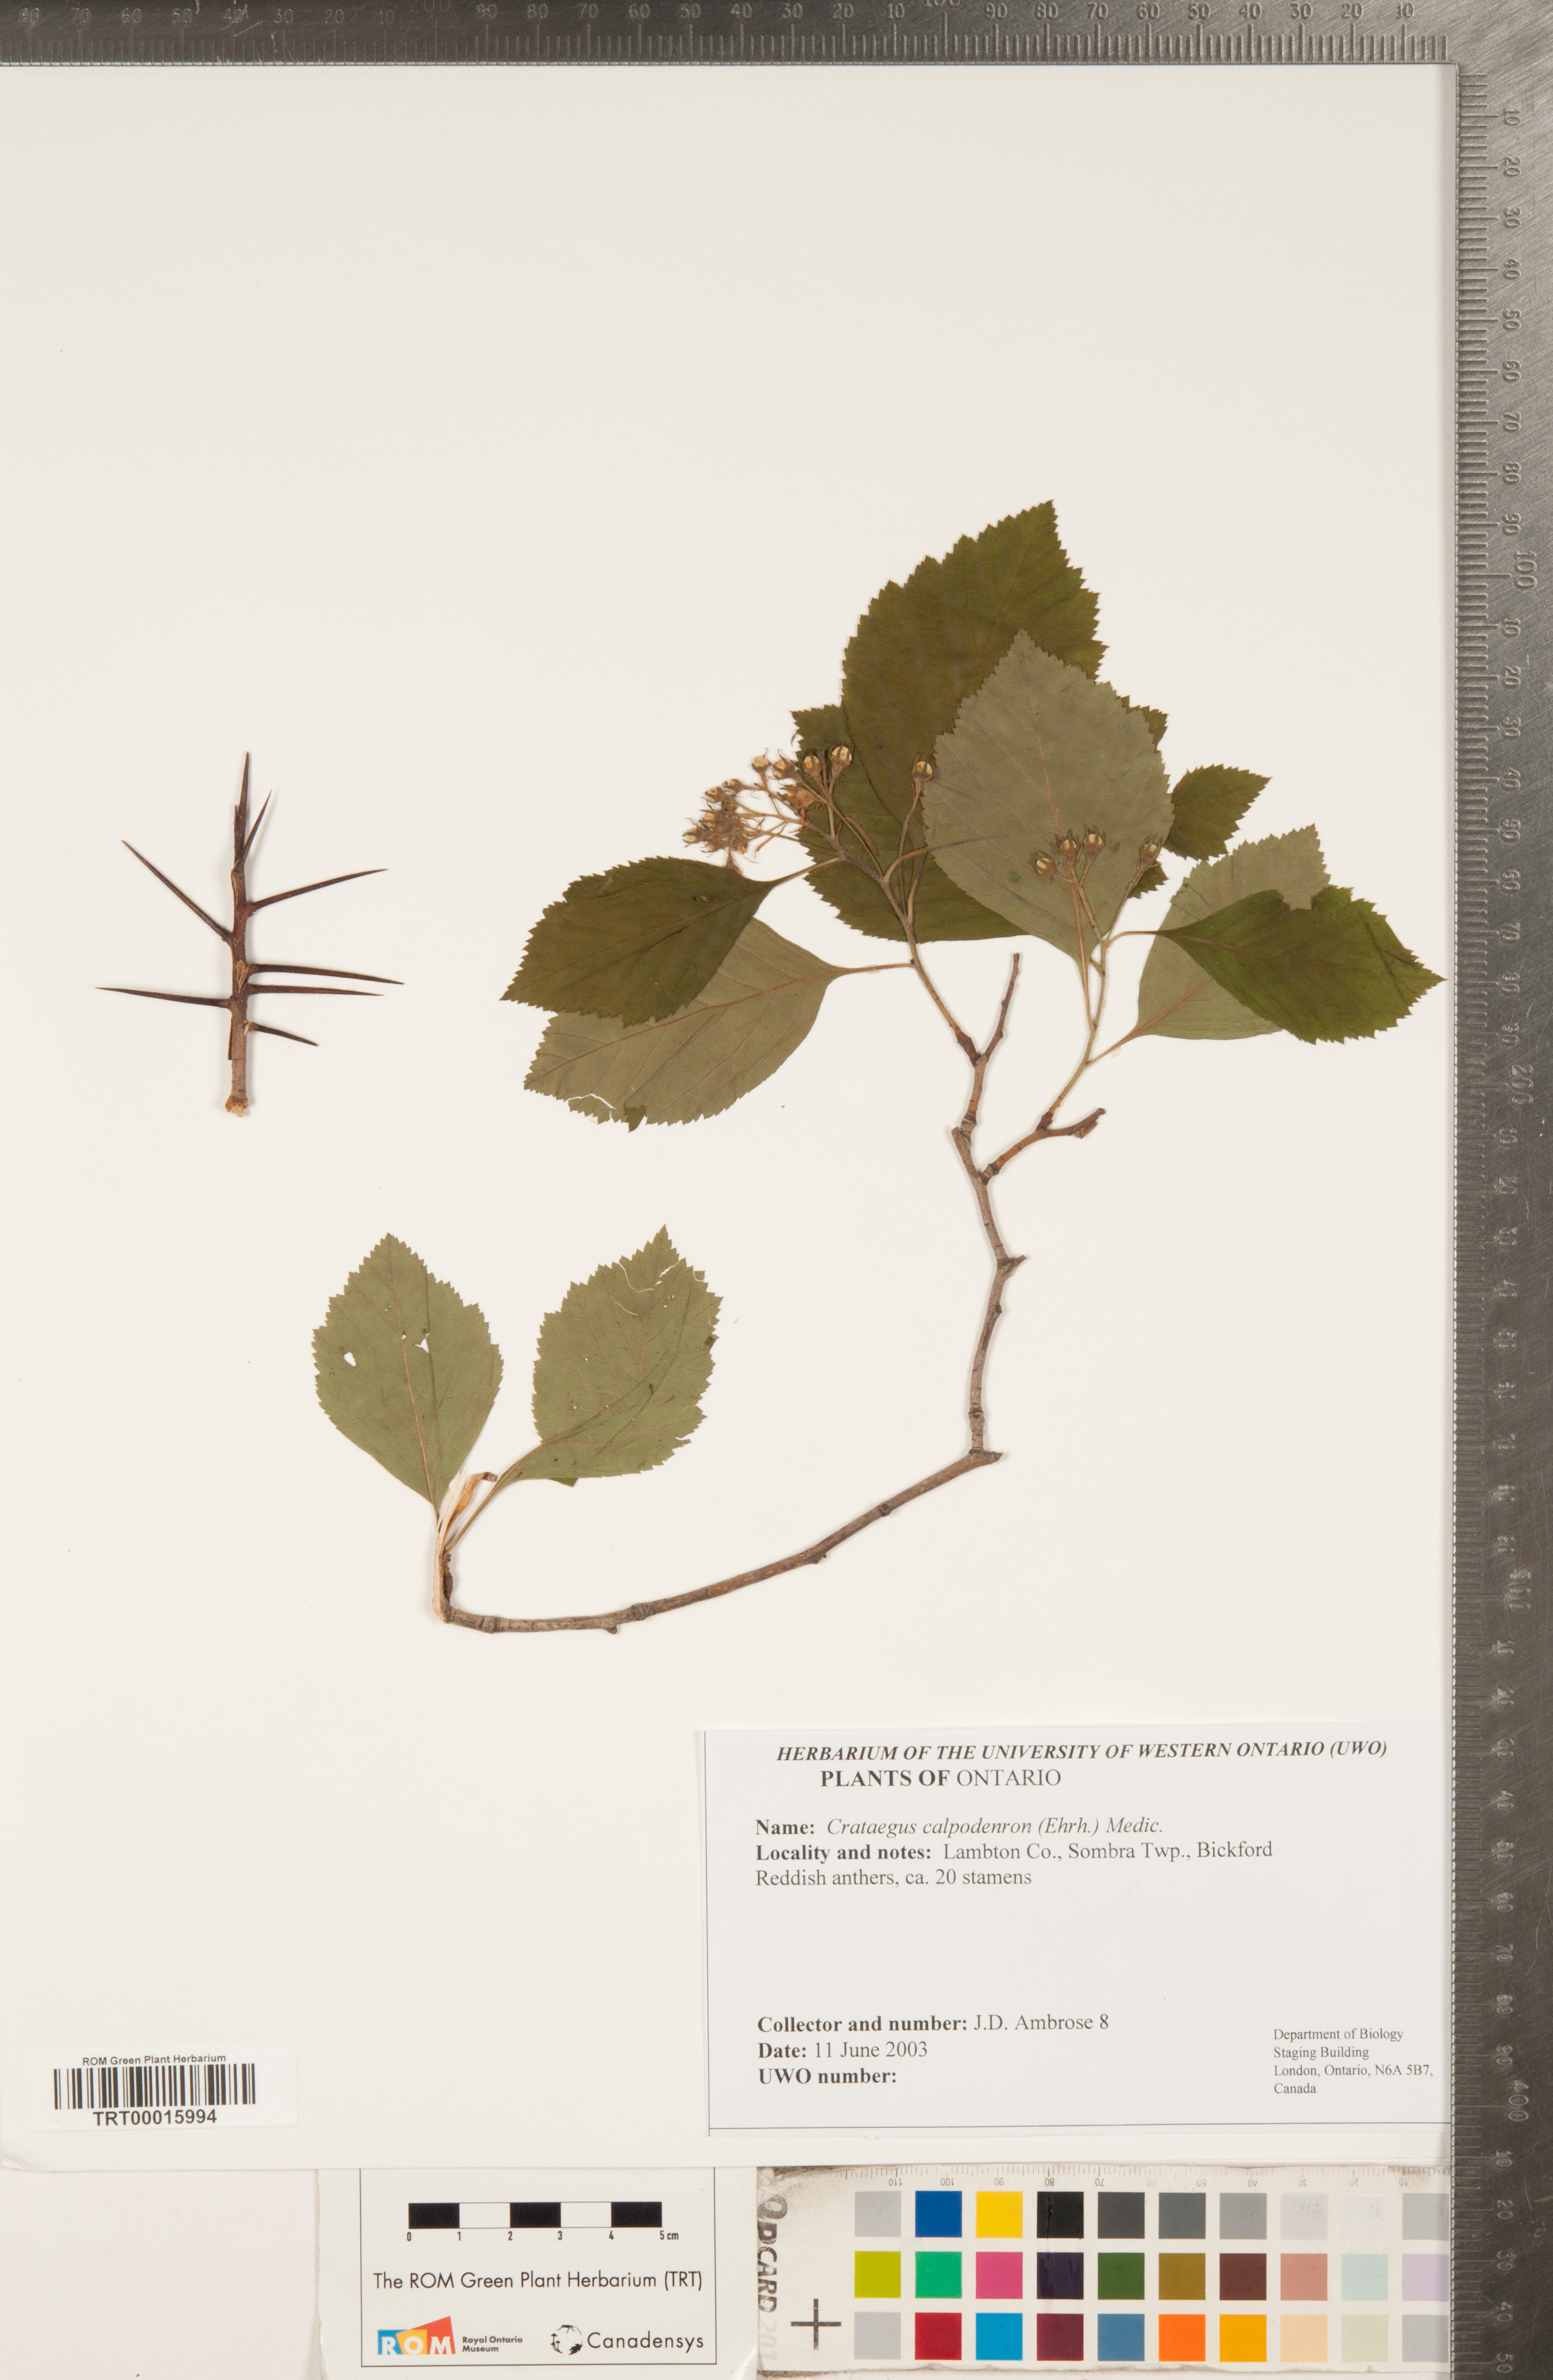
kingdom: Plantae
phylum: Tracheophyta
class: Magnoliopsida
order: Rosales
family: Rosaceae
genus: Crataegus
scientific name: Crataegus calpodendron
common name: Pear hawthorn
